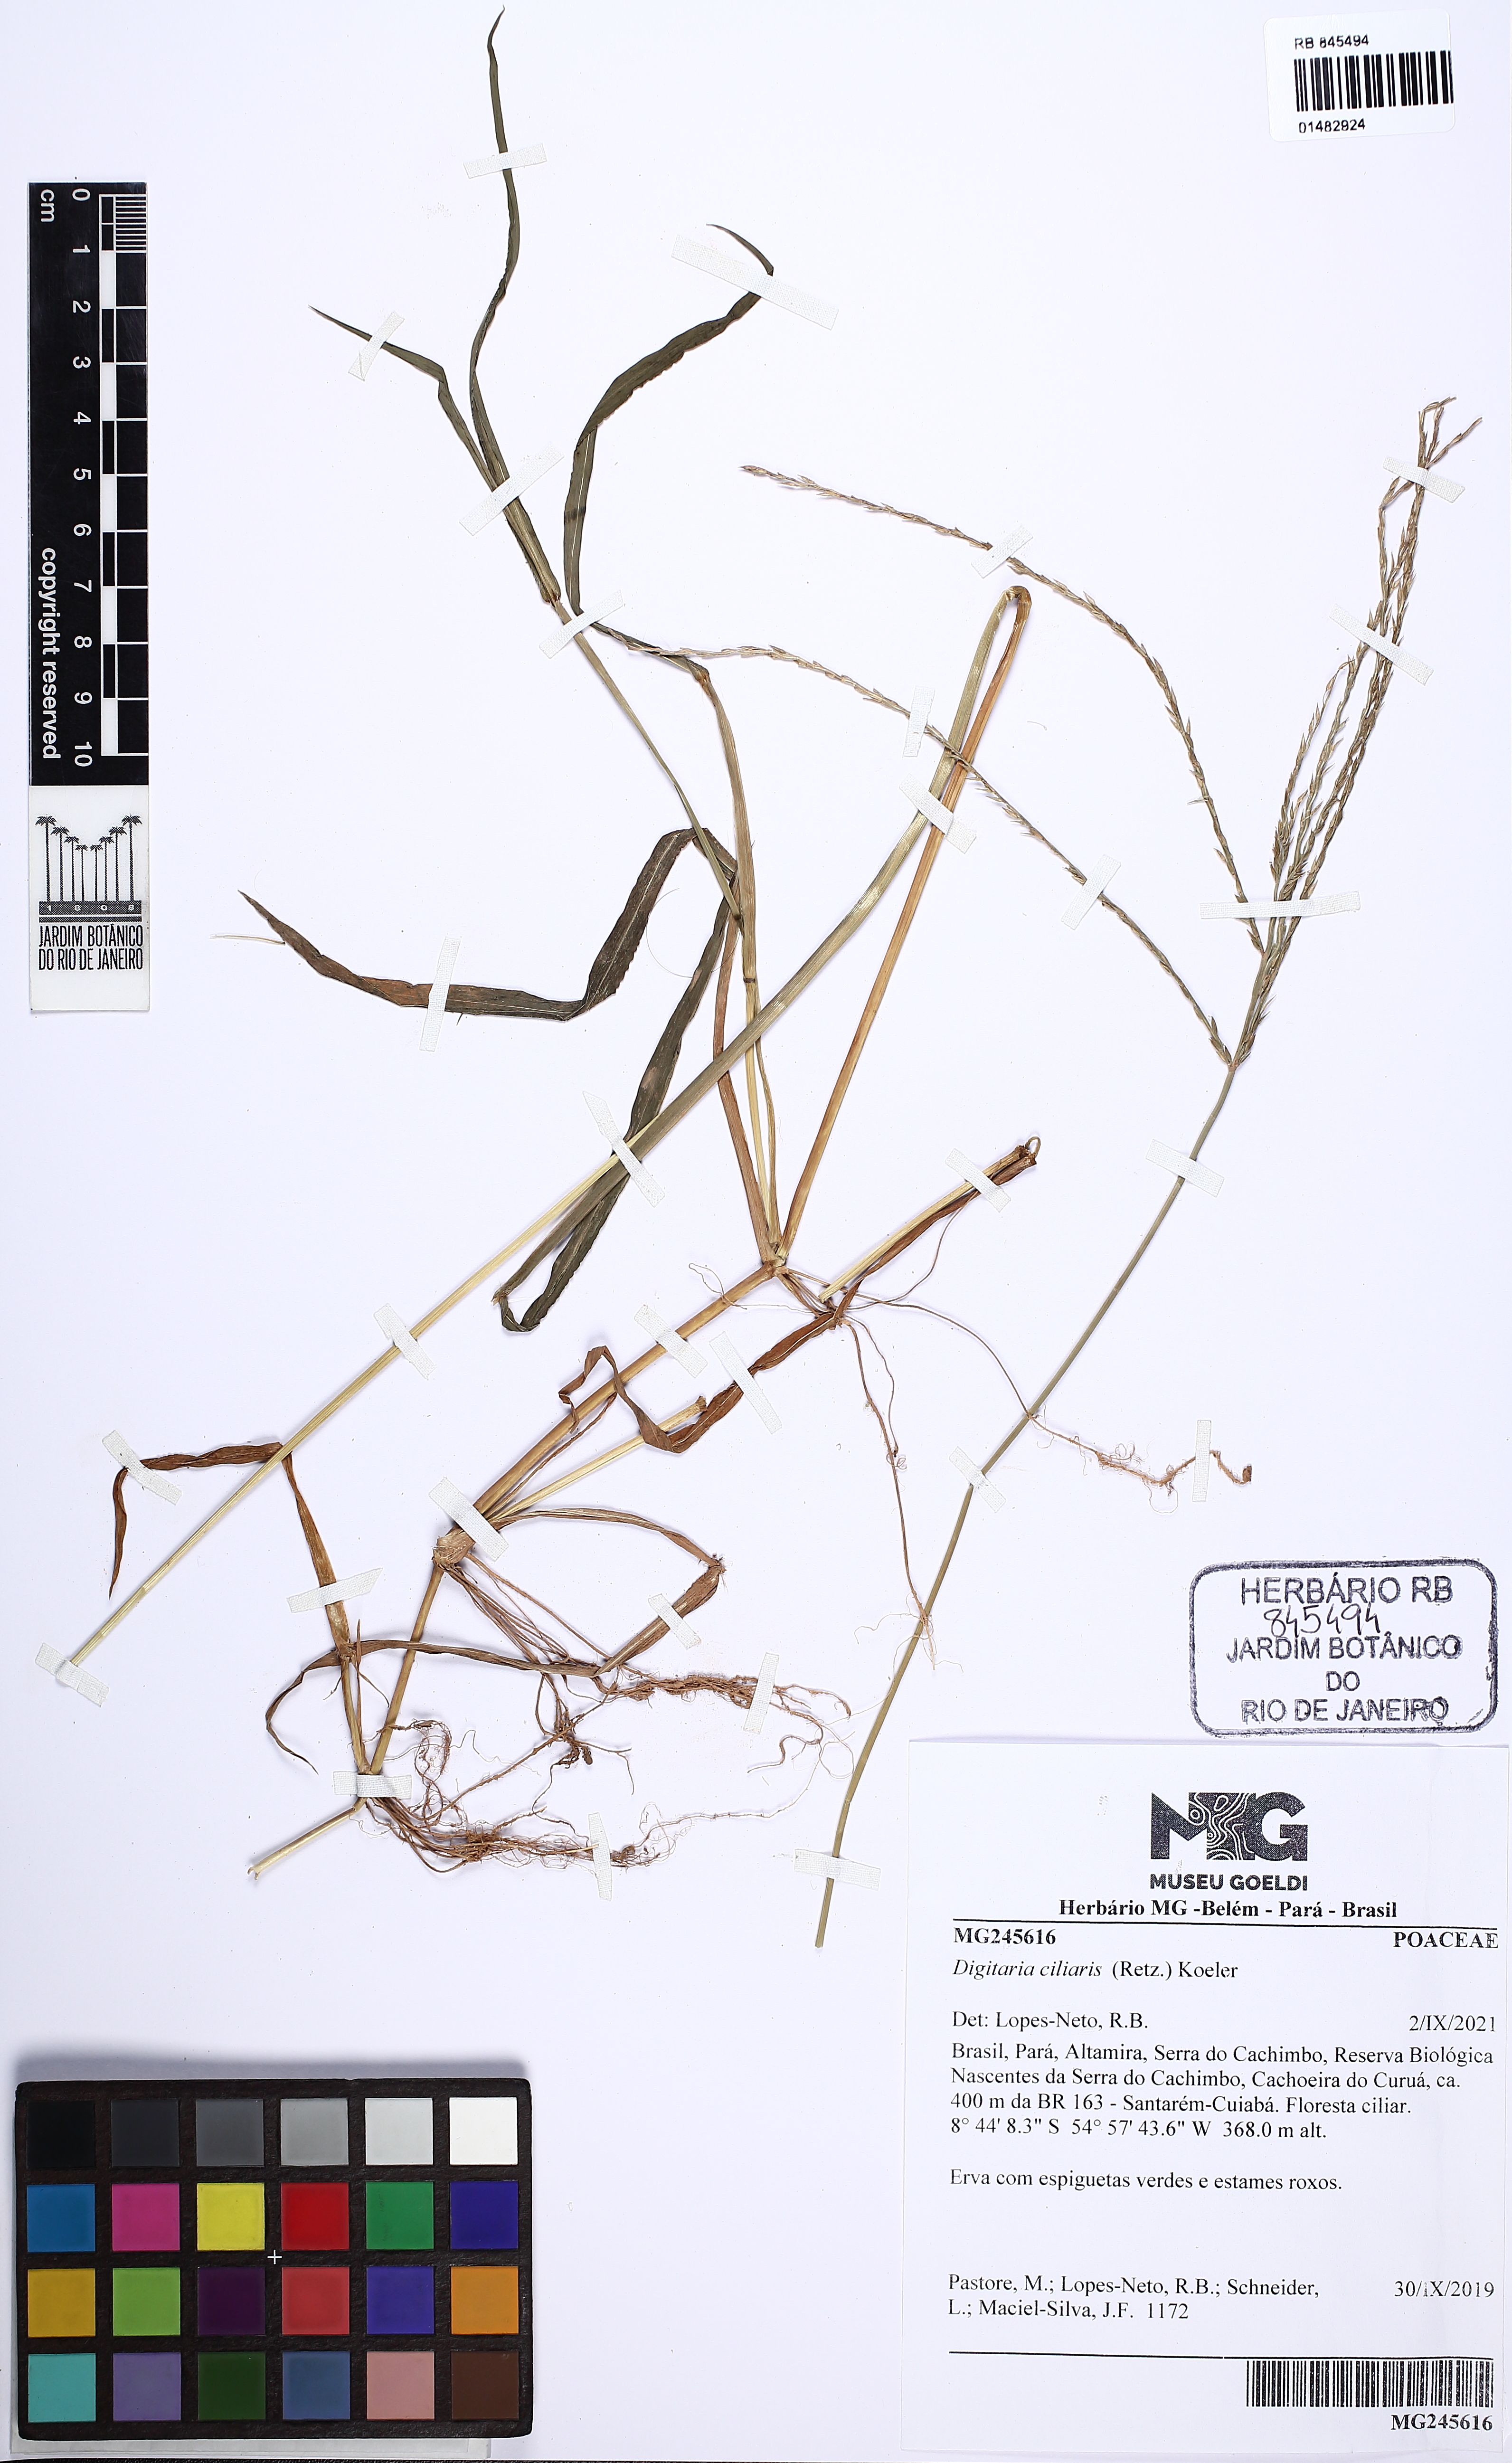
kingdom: Plantae
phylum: Tracheophyta
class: Liliopsida
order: Poales
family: Poaceae
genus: Digitaria
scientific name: Digitaria ciliaris
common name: Tropical finger-grass
